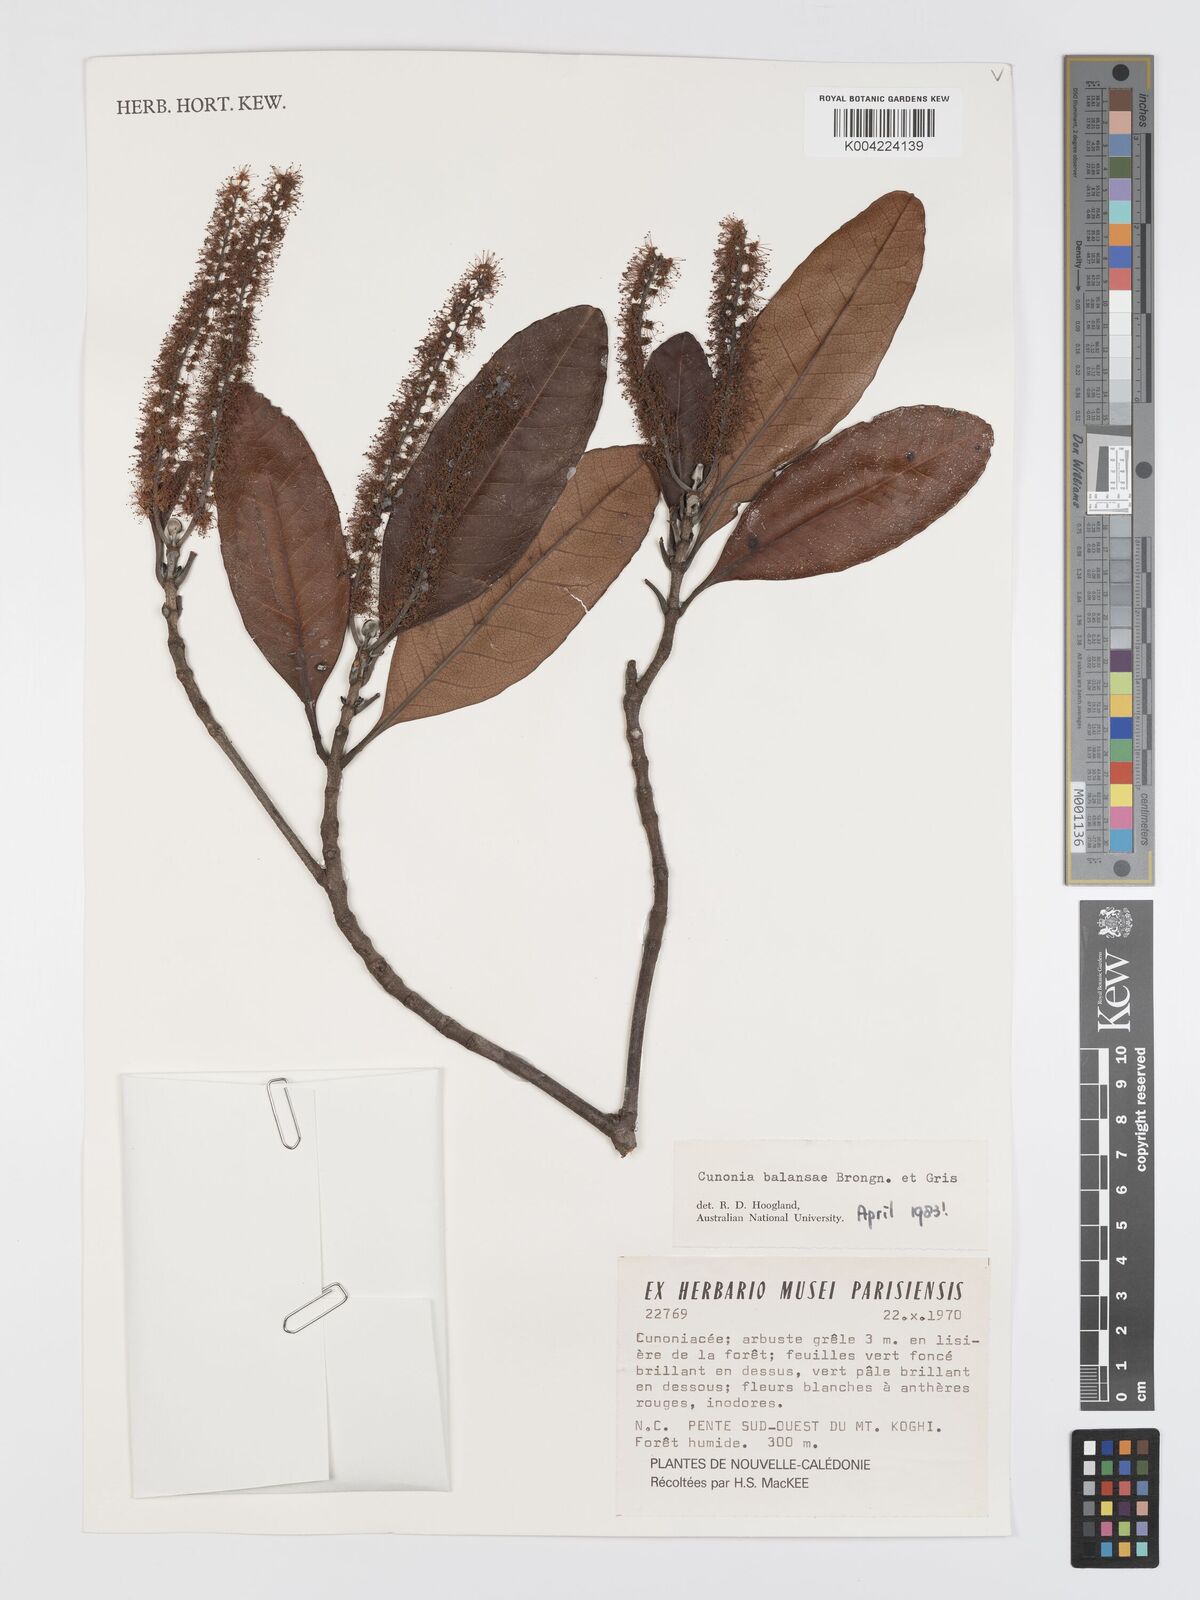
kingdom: Plantae
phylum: Tracheophyta
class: Magnoliopsida
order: Oxalidales
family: Cunoniaceae
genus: Cunonia
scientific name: Cunonia balansae
